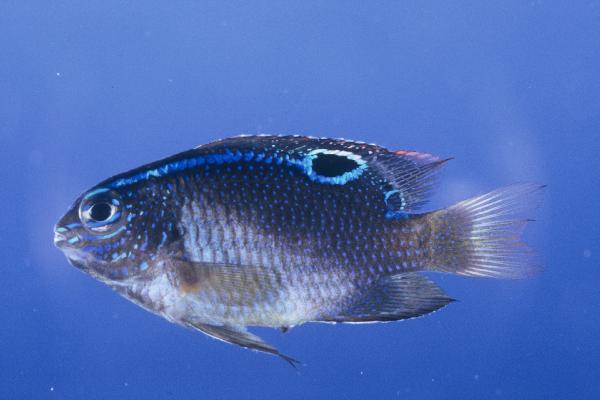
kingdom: Animalia
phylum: Chordata
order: Perciformes
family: Pomacentridae
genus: Chrysiptera
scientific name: Chrysiptera unimaculata
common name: Onespot demoiselle
